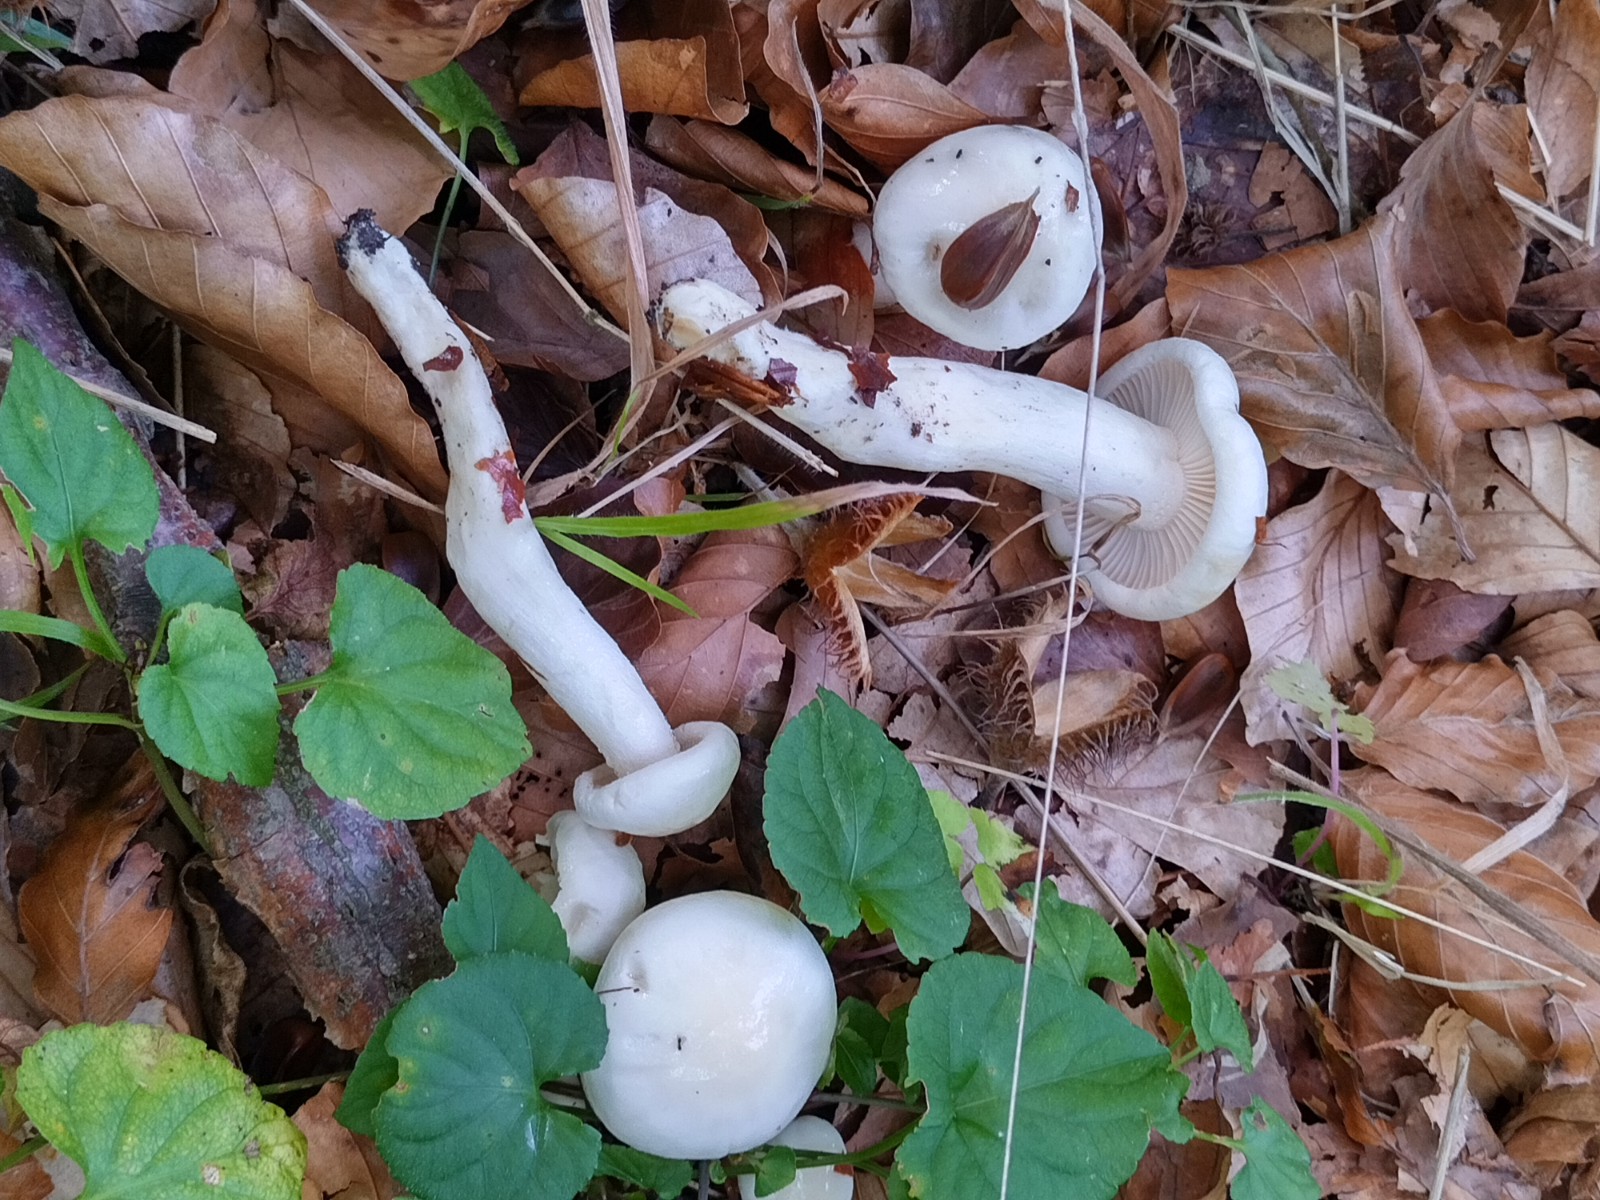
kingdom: Fungi
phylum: Basidiomycota
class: Agaricomycetes
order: Agaricales
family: Hygrophoraceae
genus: Hygrophorus
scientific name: Hygrophorus eburneus
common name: elfenbens-sneglehat
